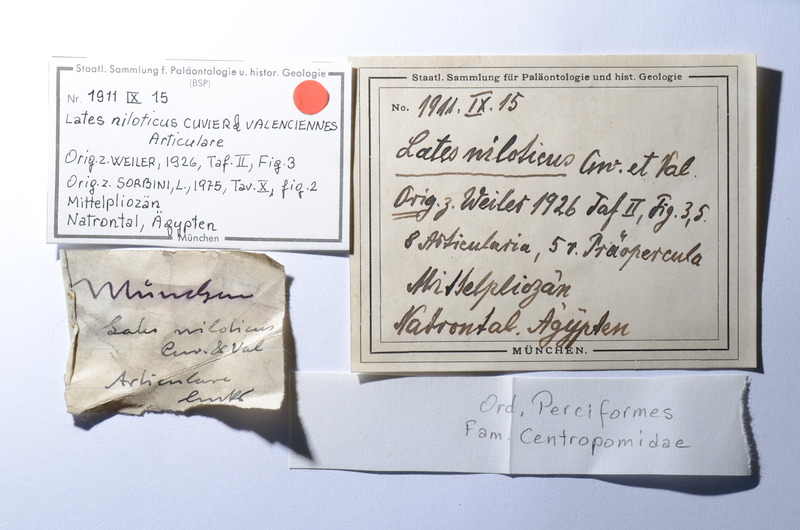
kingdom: Animalia
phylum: Chordata
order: Perciformes
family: Latidae
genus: Lates
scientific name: Lates niloticus
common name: Nile perch
